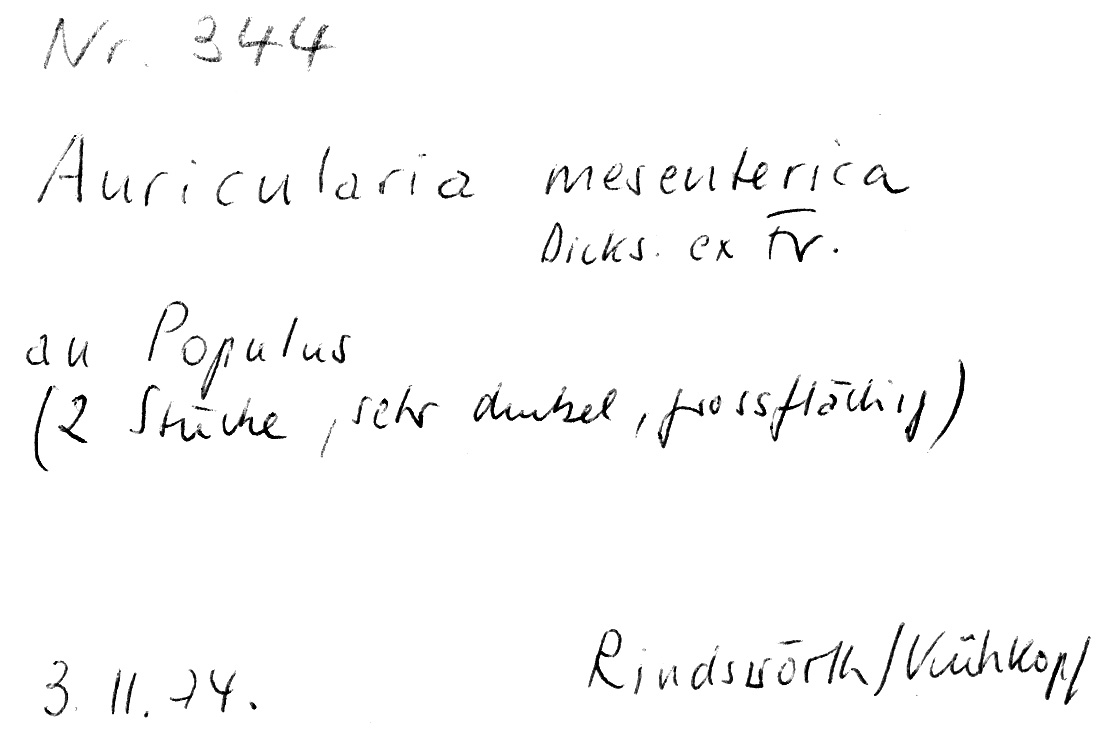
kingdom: Plantae
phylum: Tracheophyta
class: Magnoliopsida
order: Malpighiales
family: Salicaceae
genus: Populus
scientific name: Populus
